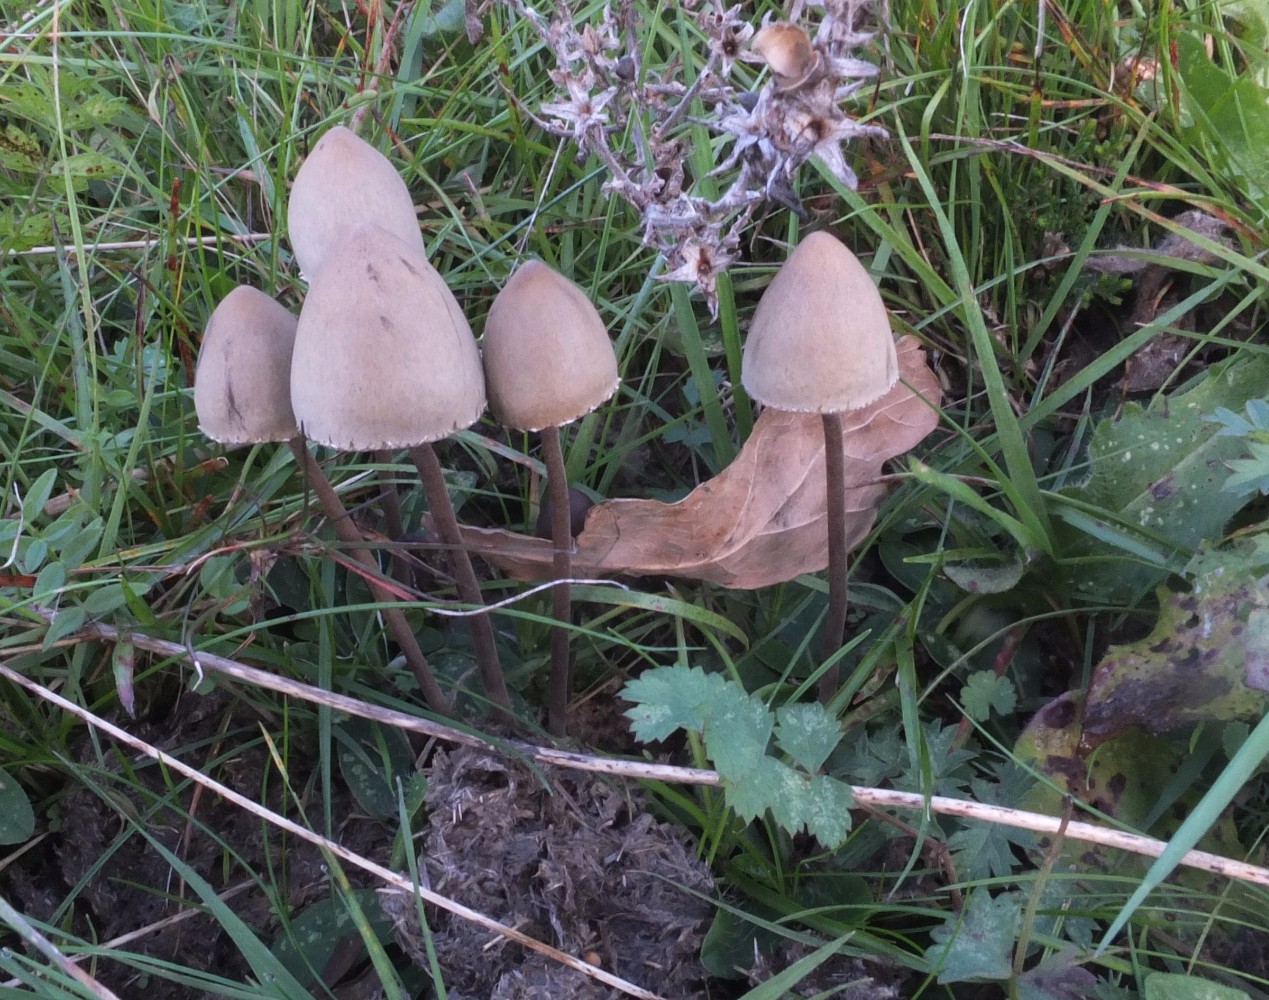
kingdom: Fungi
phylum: Basidiomycota
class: Agaricomycetes
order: Agaricales
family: Bolbitiaceae
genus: Panaeolus
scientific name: Panaeolus papilionaceus
